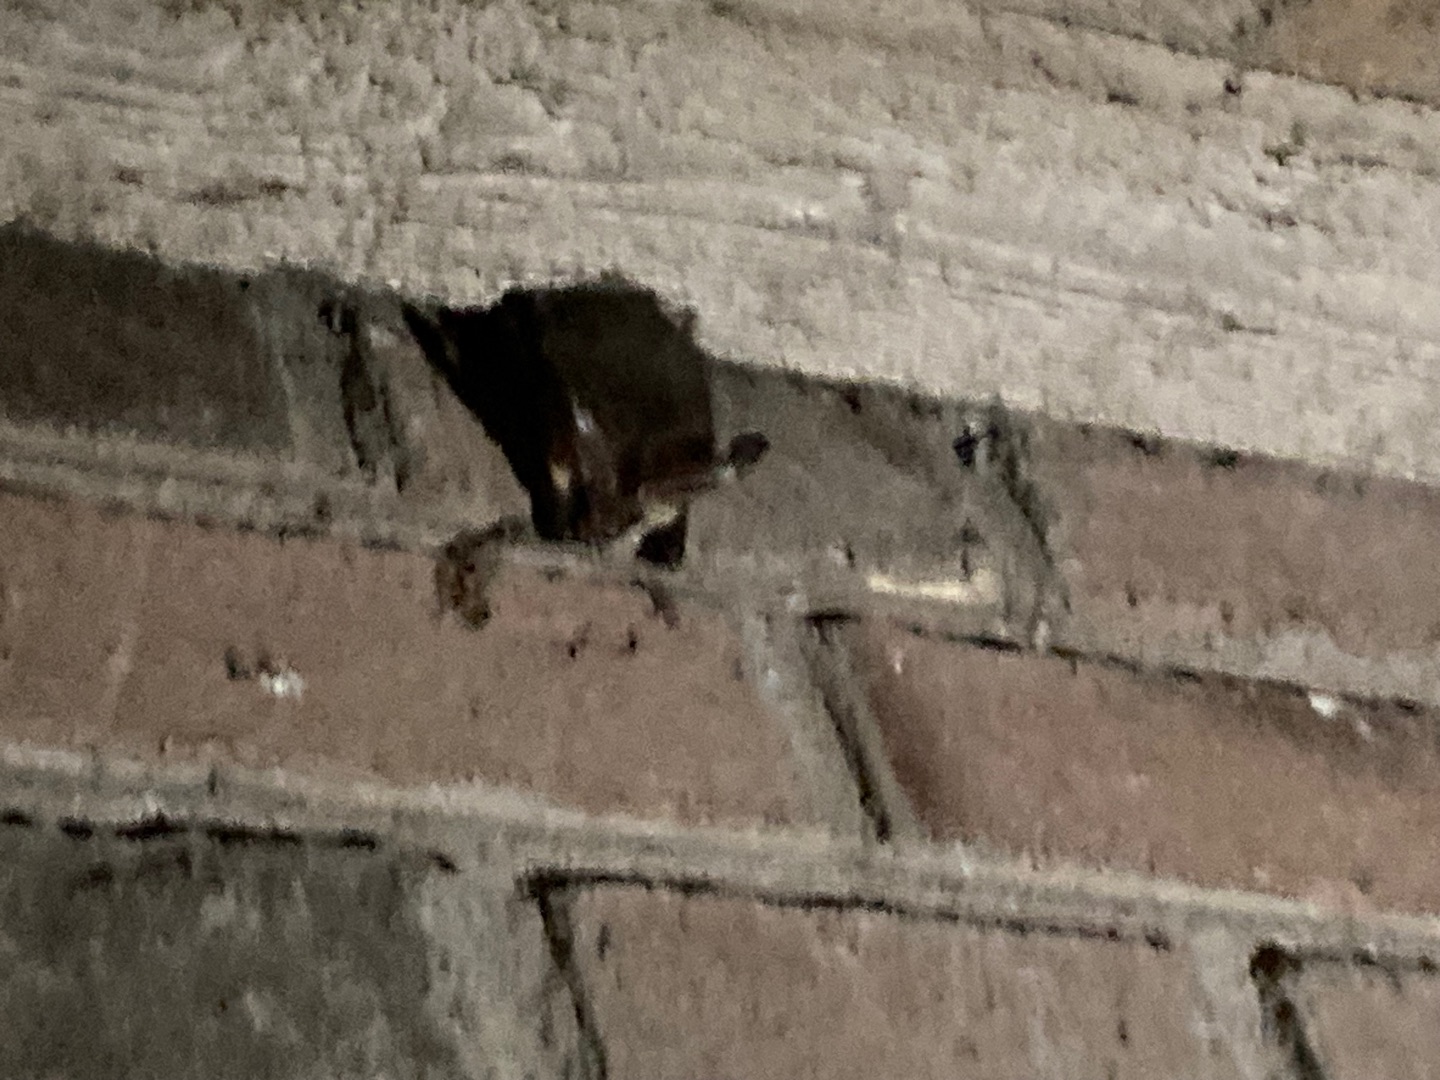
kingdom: Animalia
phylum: Chordata
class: Mammalia
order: Chiroptera
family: Vespertilionidae
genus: Plecotus
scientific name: Plecotus auritus
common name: Brun langøre
